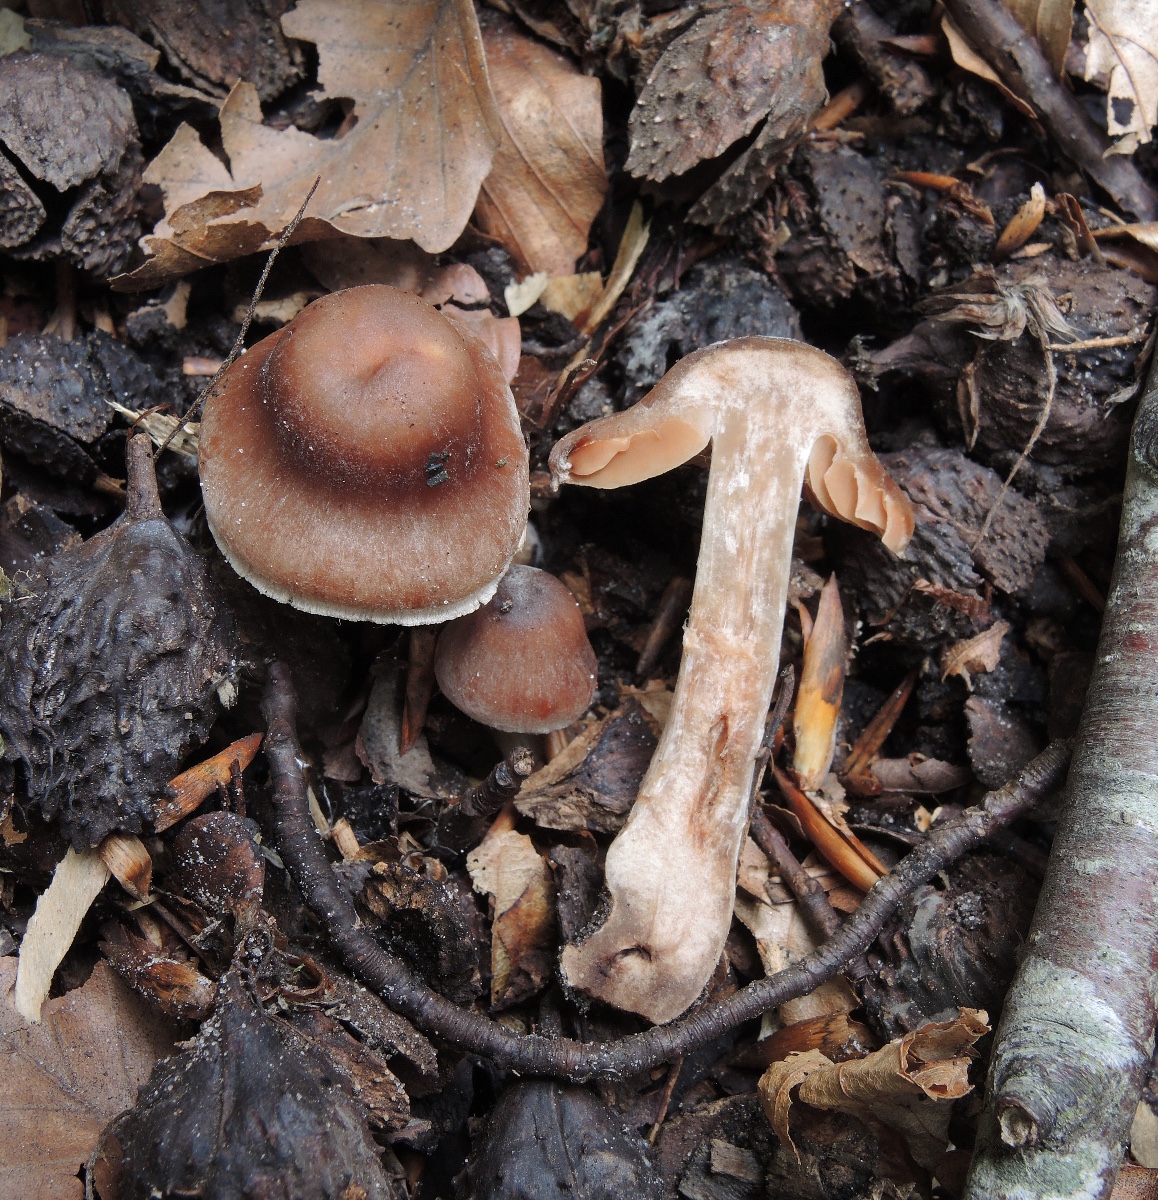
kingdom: Fungi
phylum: Basidiomycota
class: Agaricomycetes
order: Agaricales
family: Cortinariaceae
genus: Cortinarius
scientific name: Cortinarius torvoides
